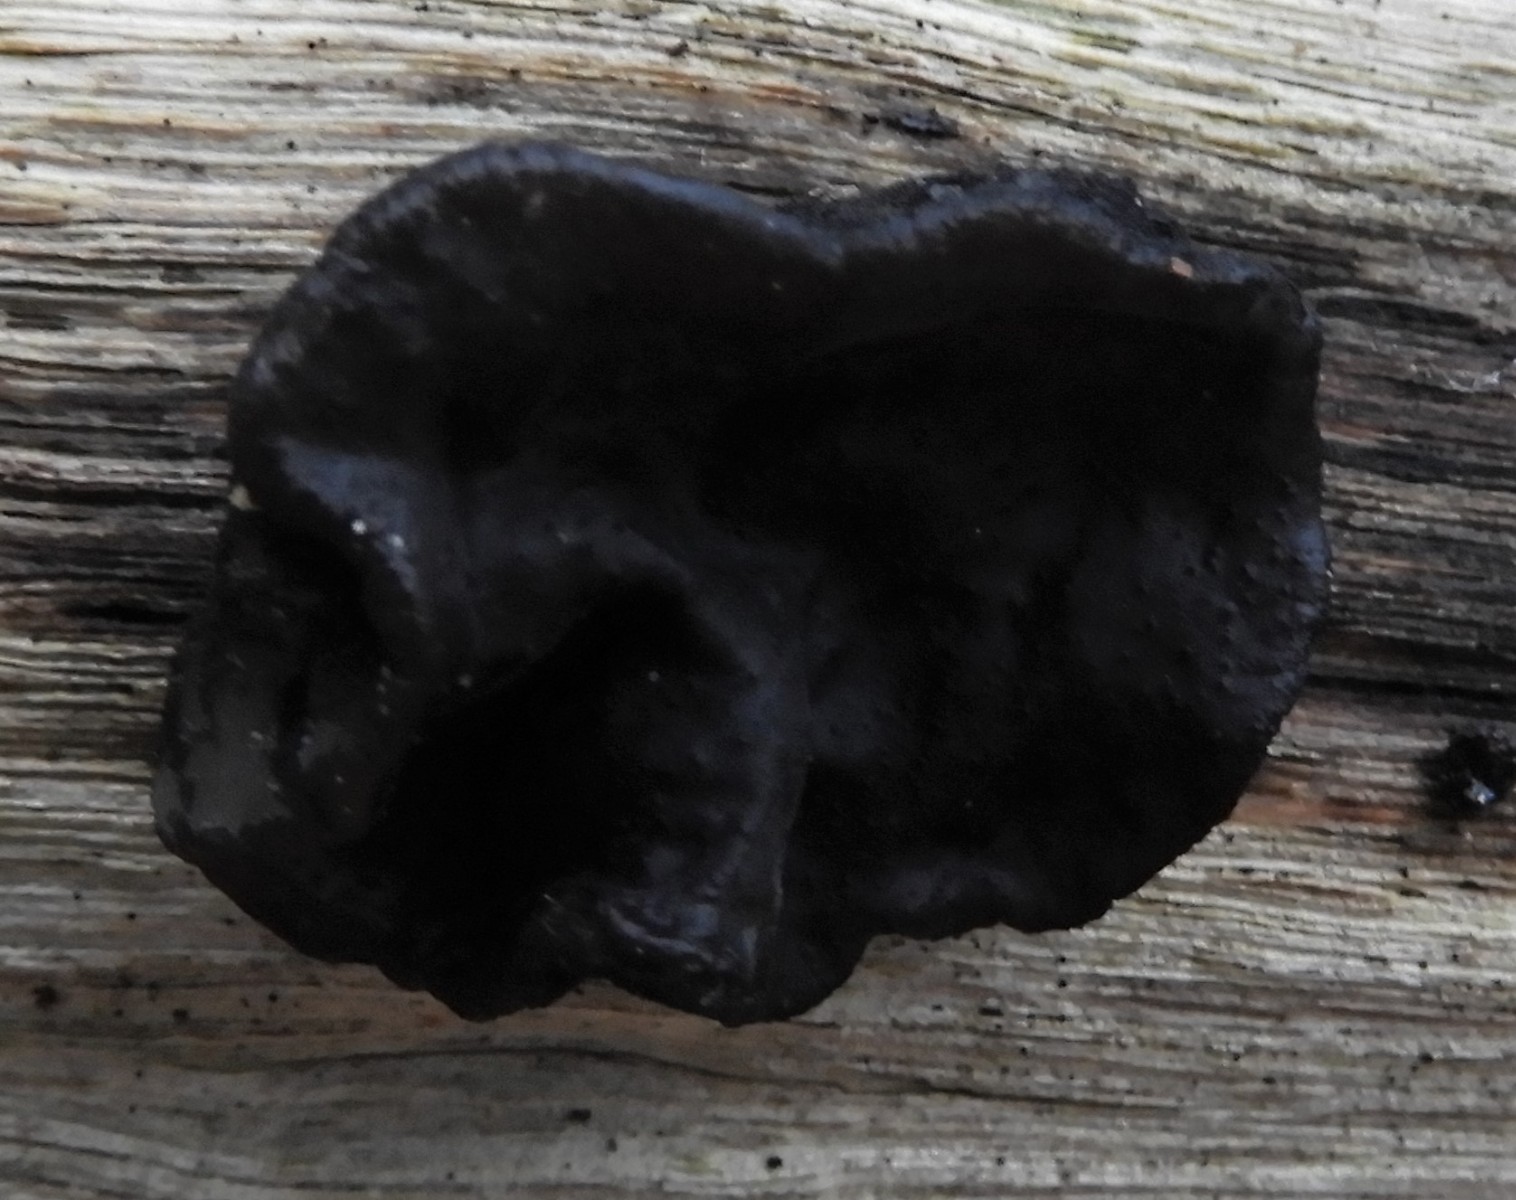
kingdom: Fungi
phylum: Basidiomycota
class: Agaricomycetes
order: Auriculariales
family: Auriculariaceae
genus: Exidia
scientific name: Exidia glandulosa
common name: ege-bævretop
